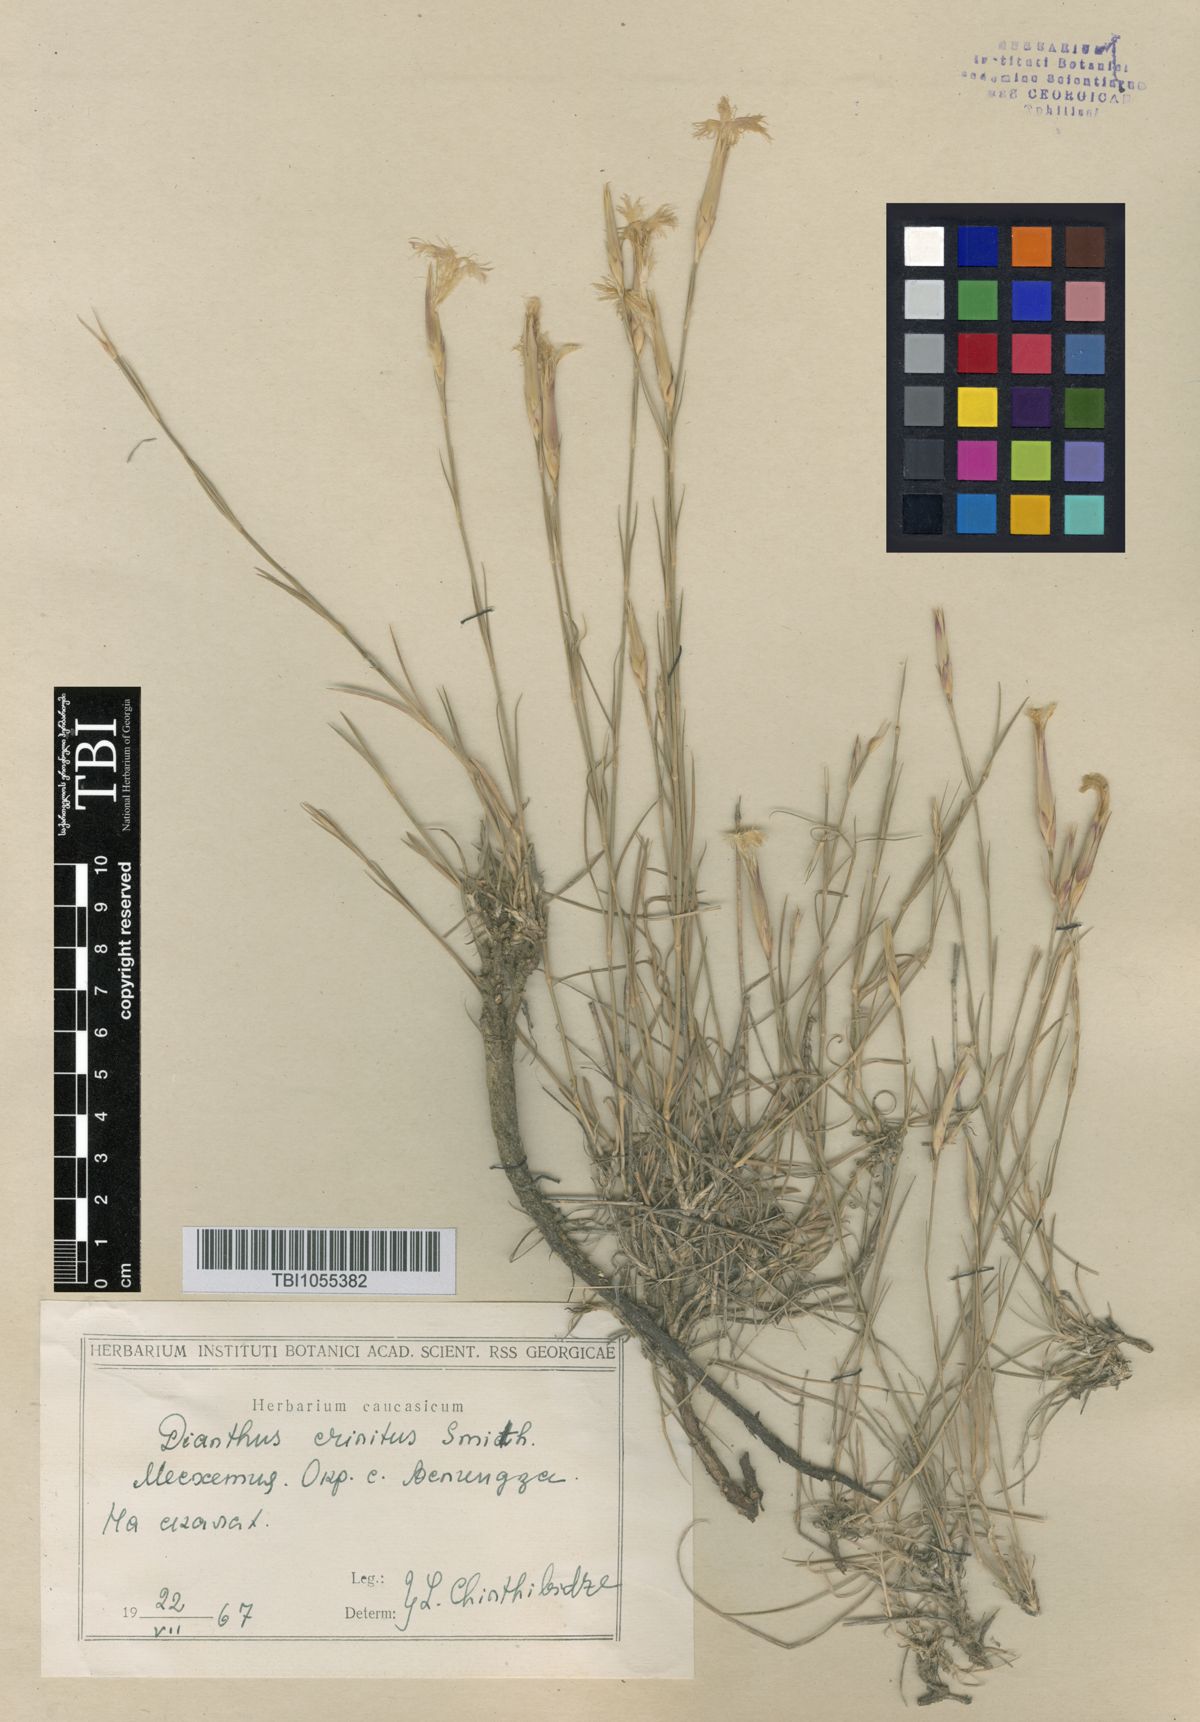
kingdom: Plantae
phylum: Tracheophyta
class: Magnoliopsida
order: Caryophyllales
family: Caryophyllaceae
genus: Dianthus
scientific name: Dianthus crinitus
